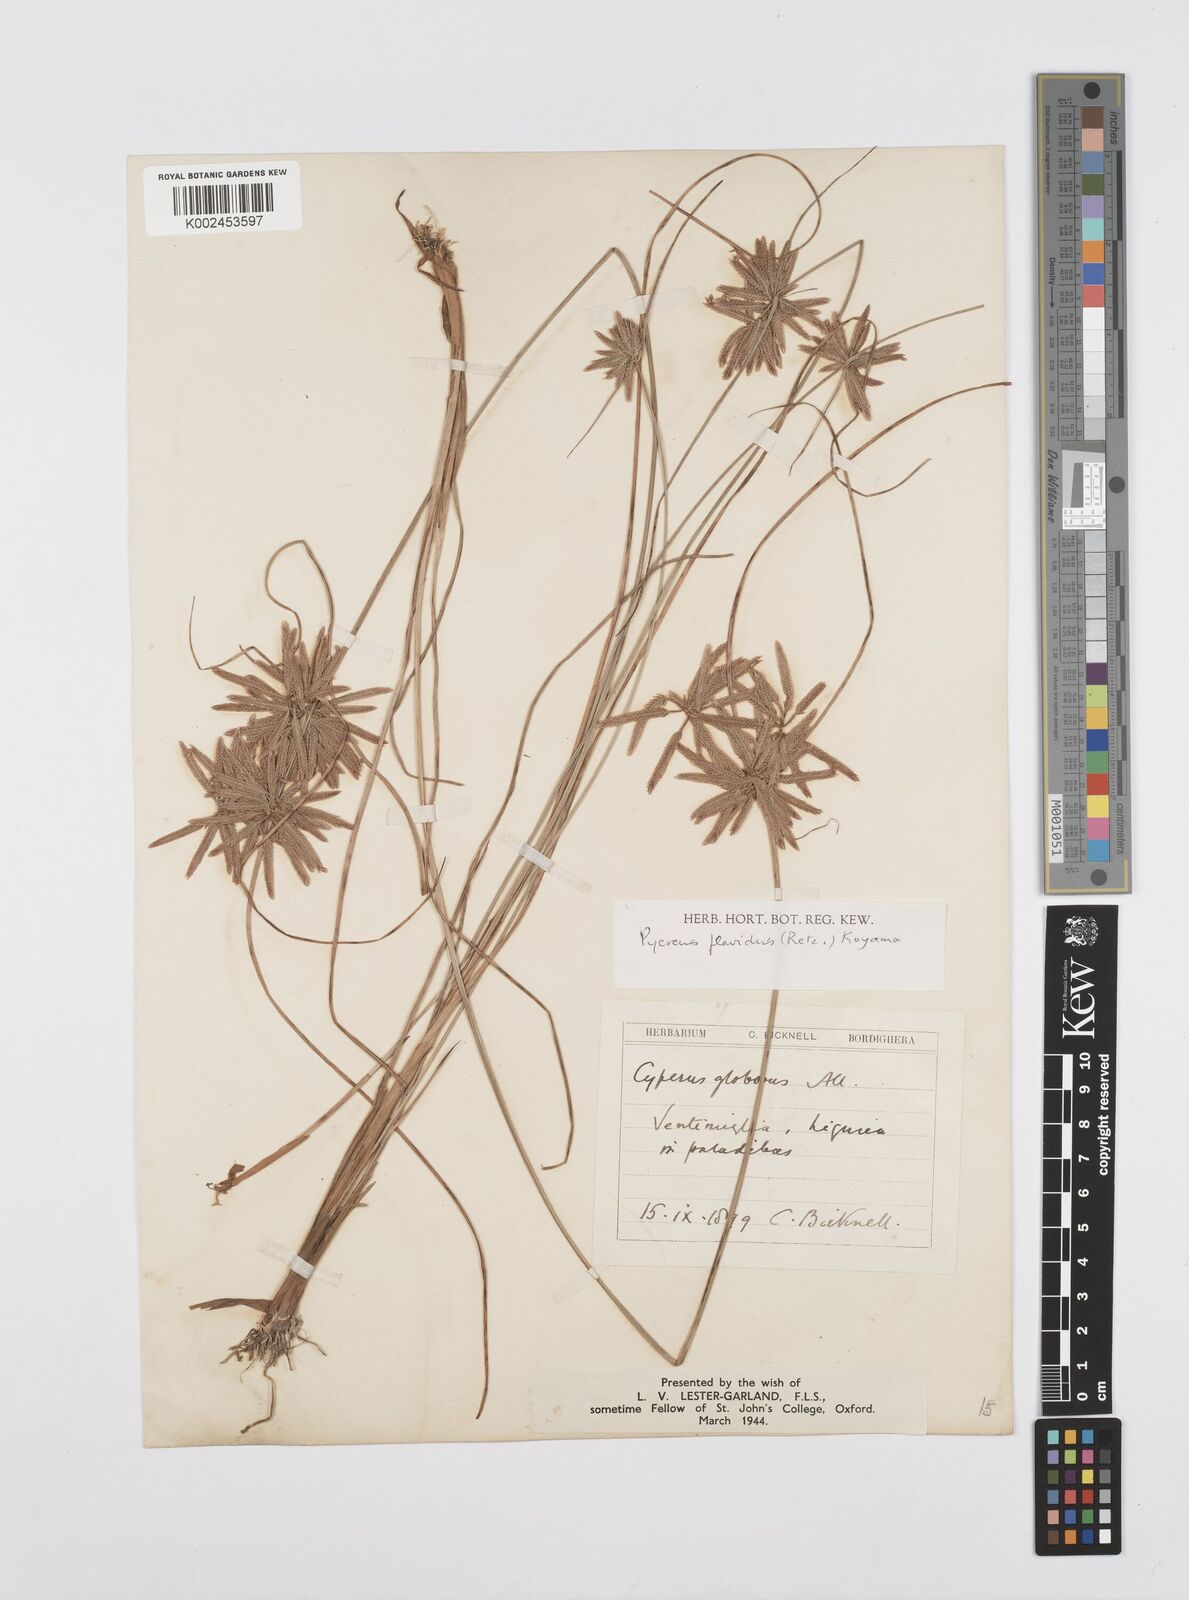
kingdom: Plantae
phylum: Tracheophyta
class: Liliopsida
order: Poales
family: Cyperaceae
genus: Cyperus
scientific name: Cyperus flavidus
